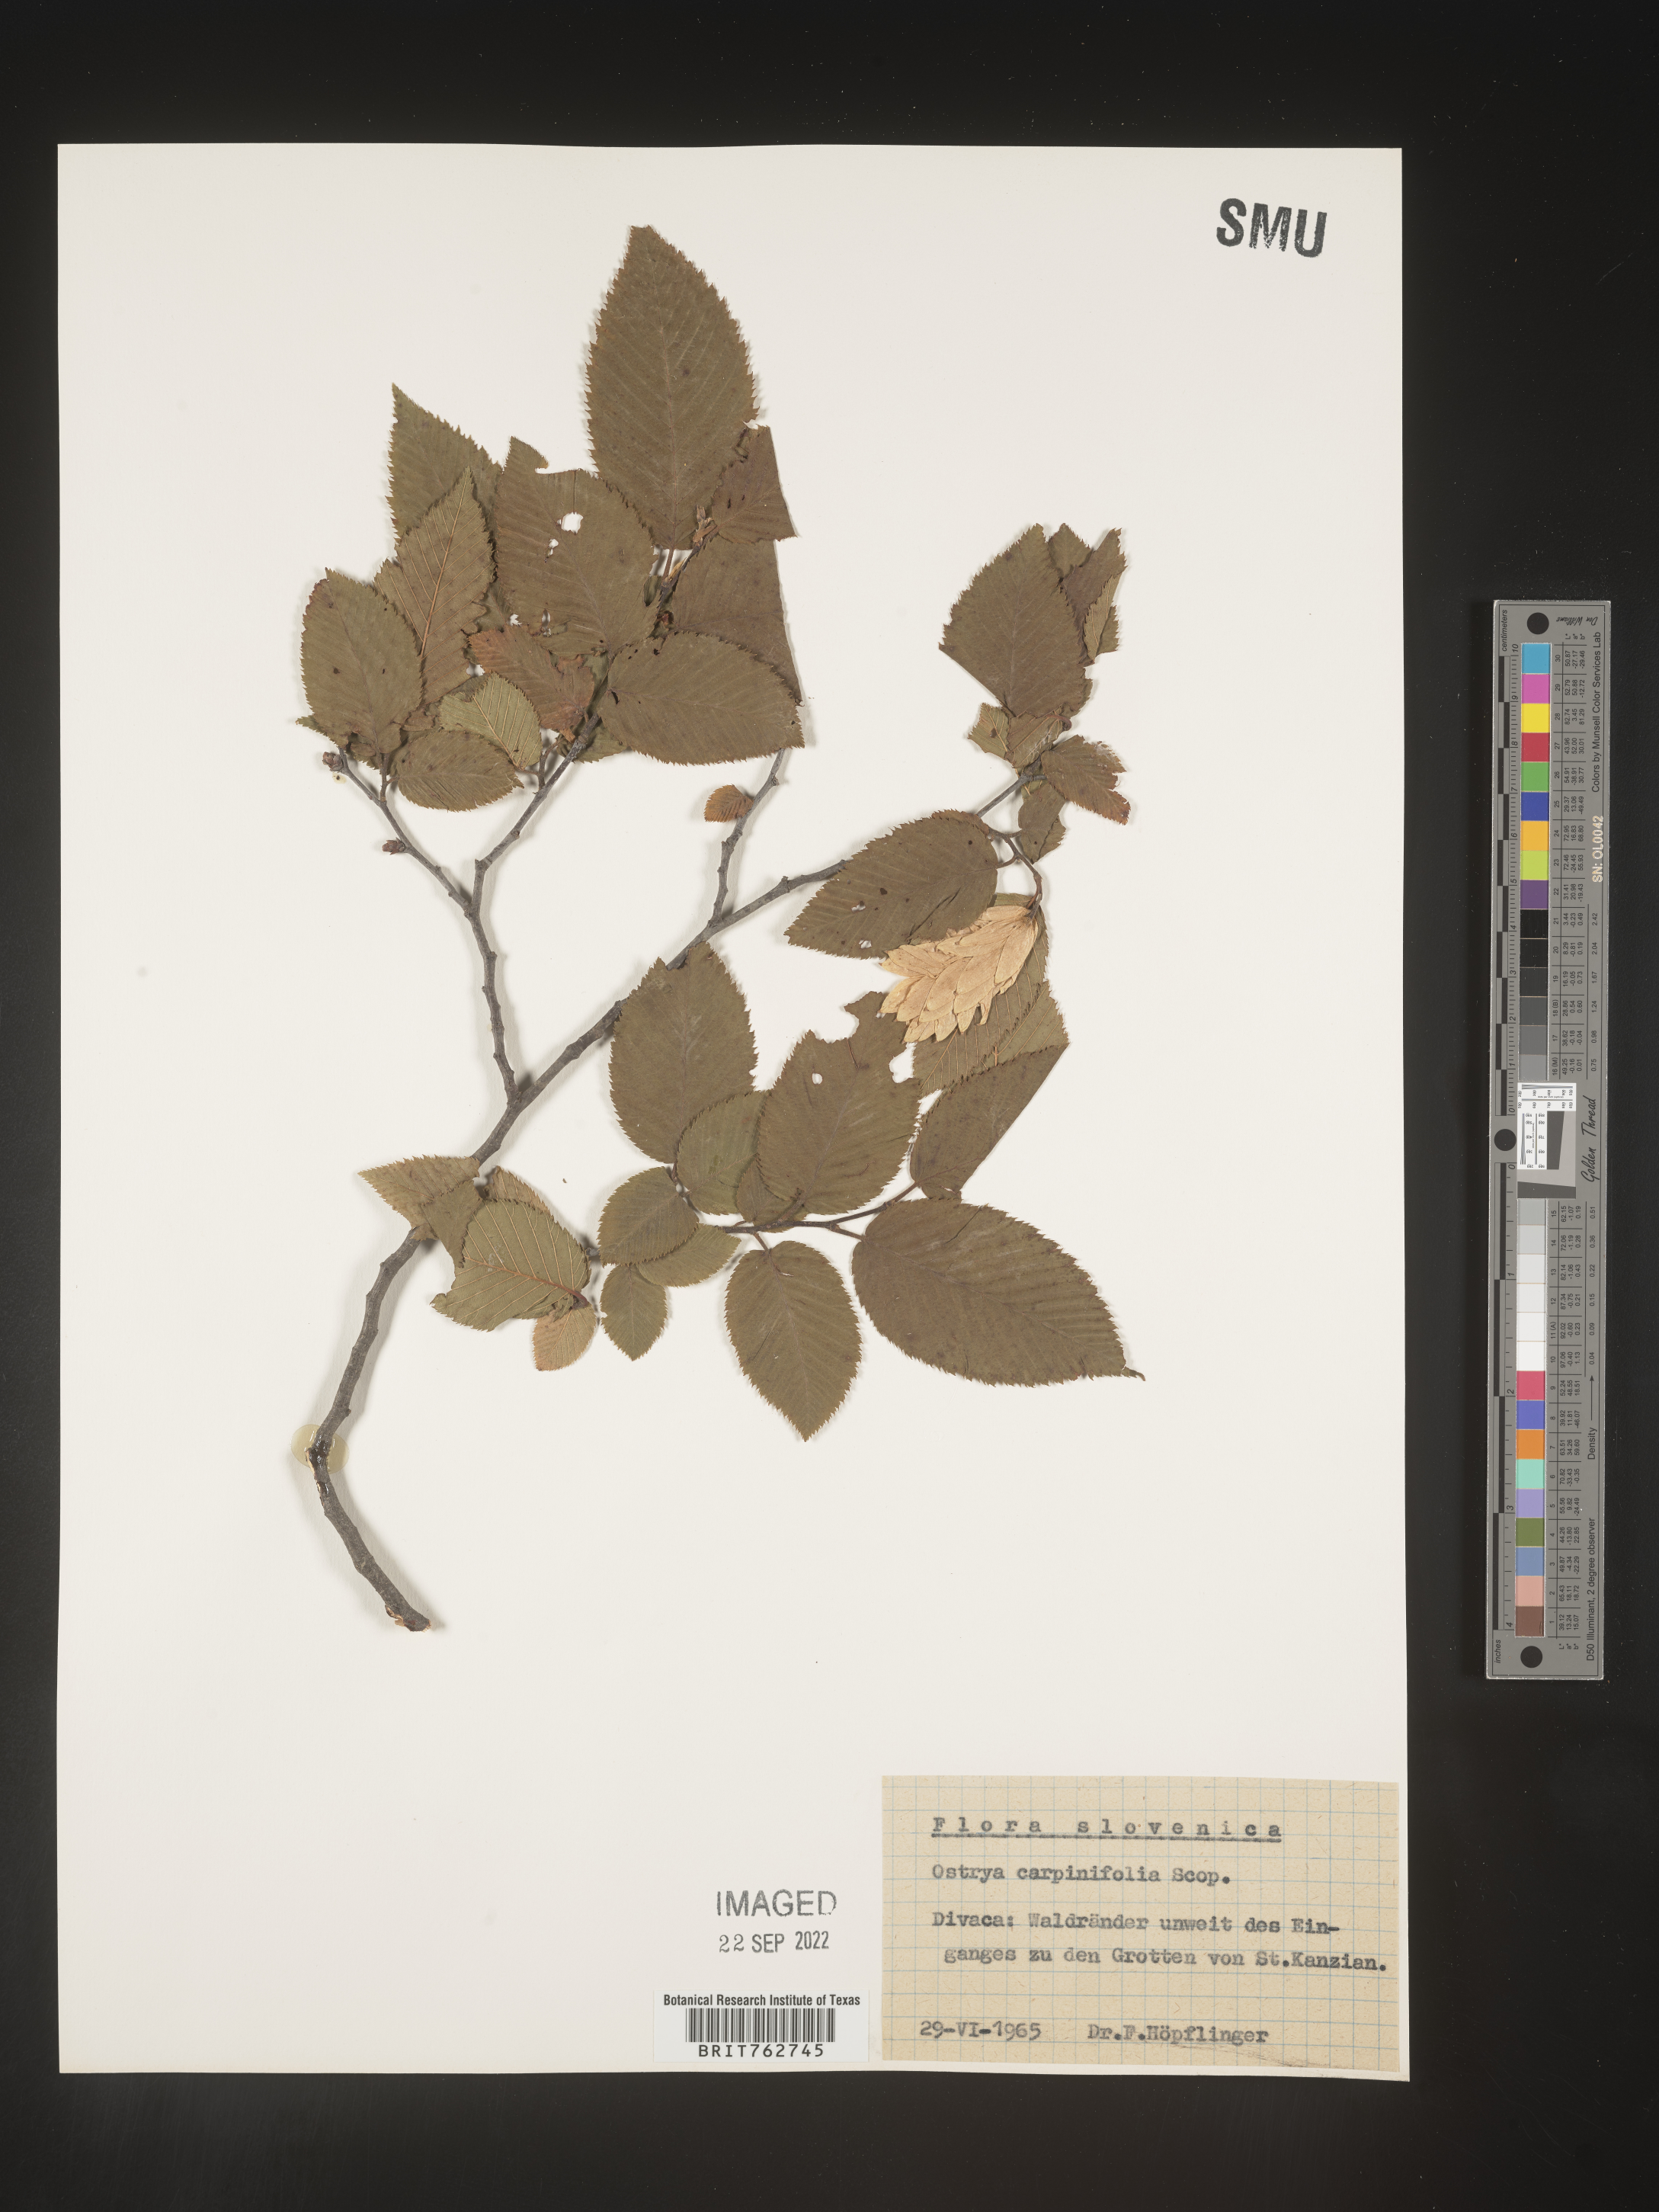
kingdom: Plantae
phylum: Tracheophyta
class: Magnoliopsida
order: Fagales
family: Betulaceae
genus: Ostrya
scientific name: Ostrya
